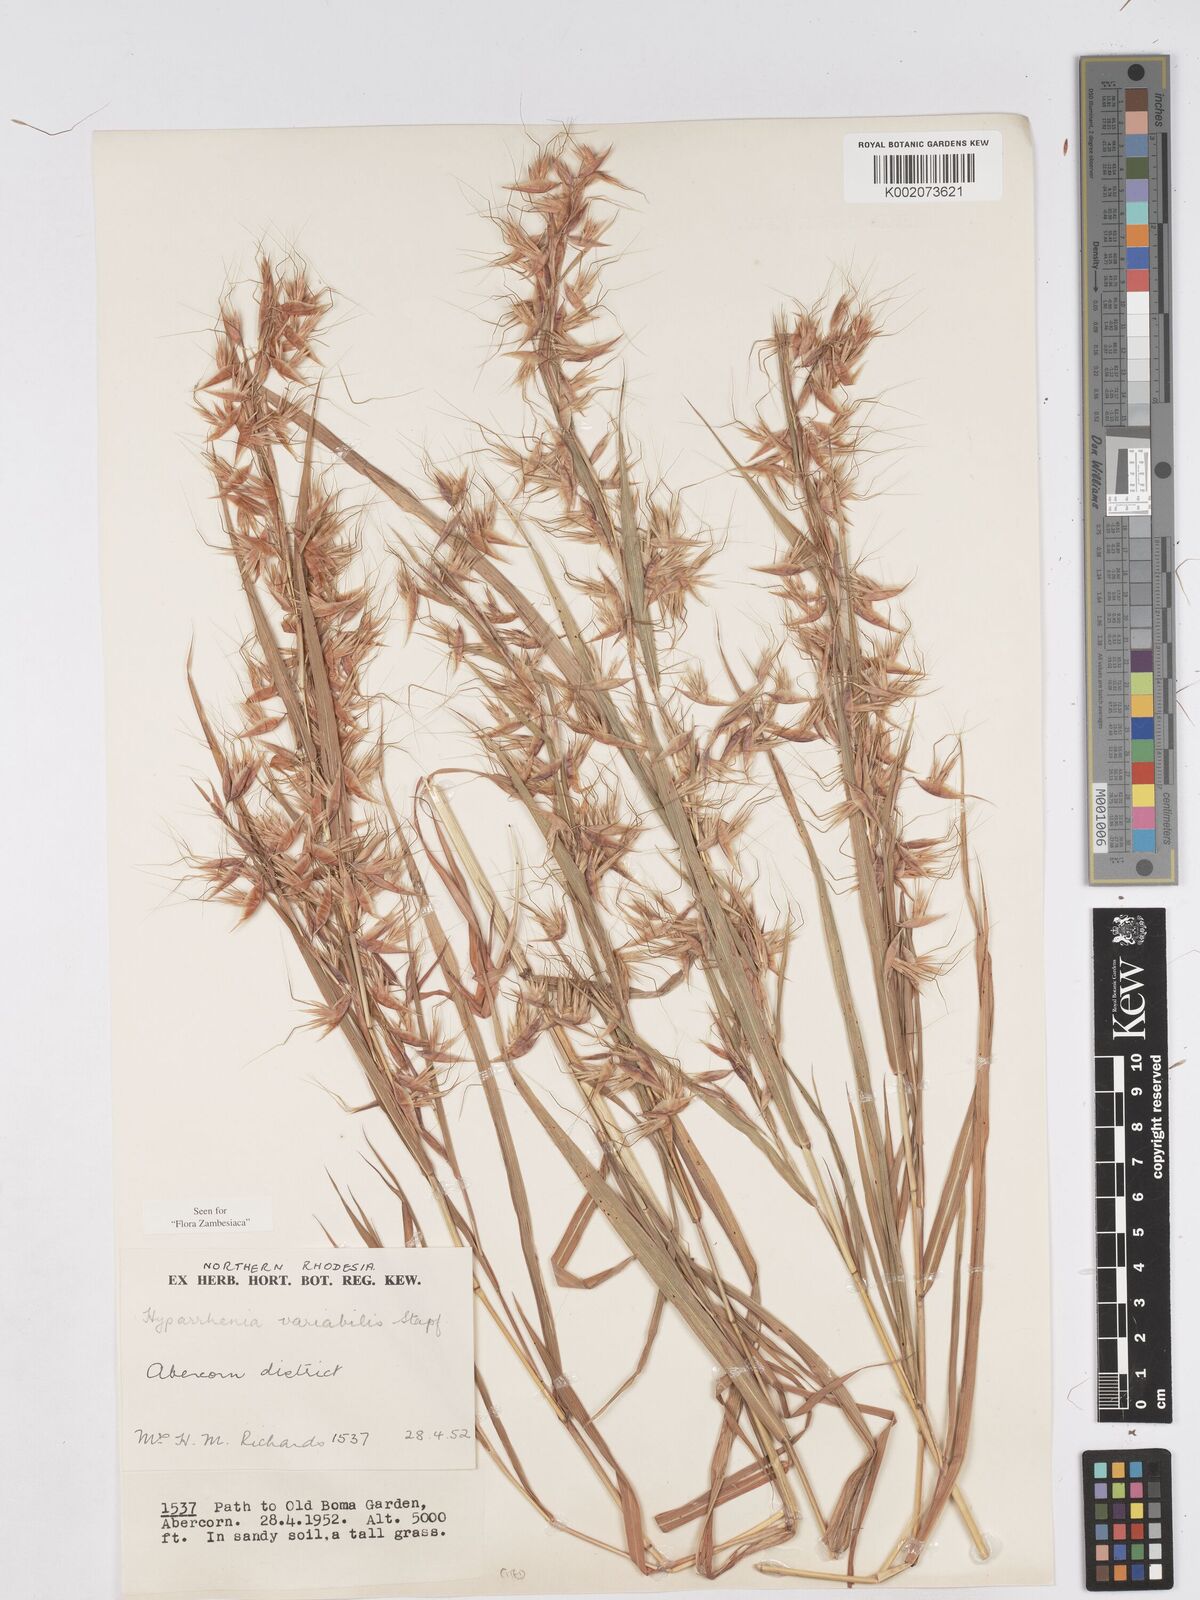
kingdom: Plantae
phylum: Tracheophyta
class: Liliopsida
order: Poales
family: Poaceae
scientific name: Poaceae
